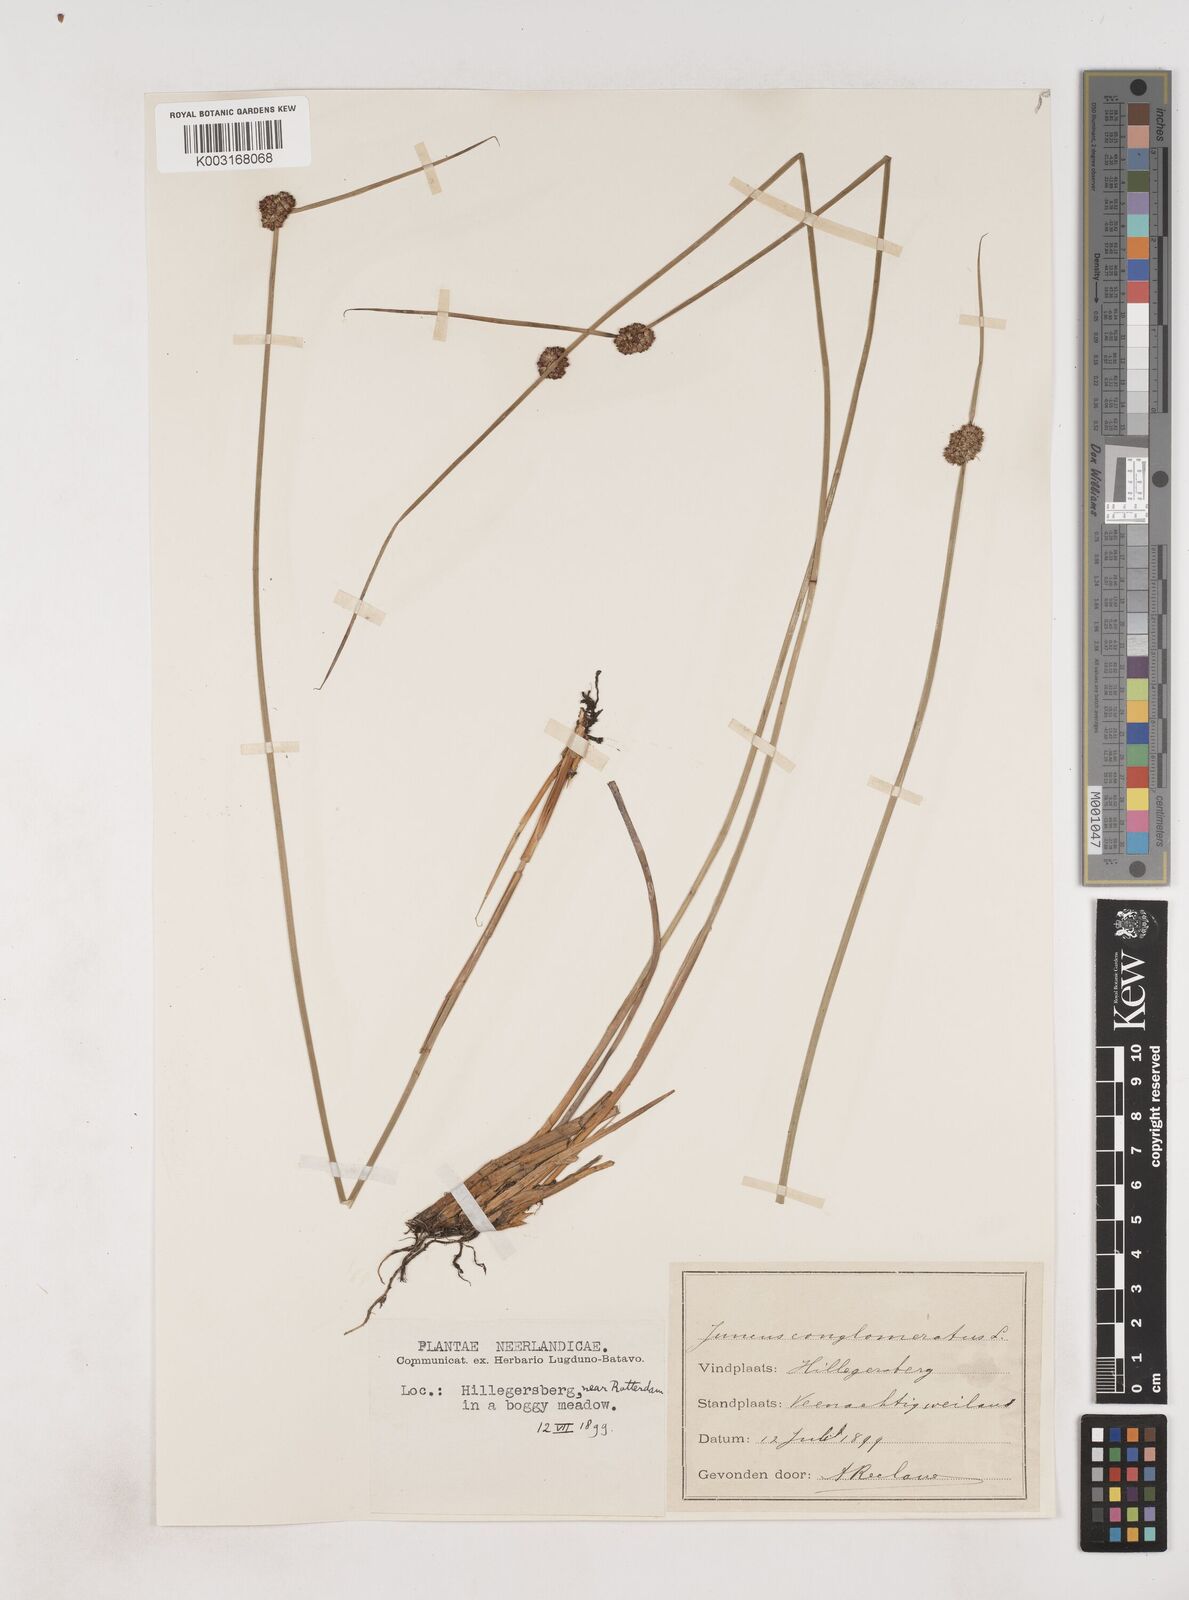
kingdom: Plantae
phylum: Tracheophyta
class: Liliopsida
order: Poales
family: Juncaceae
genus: Juncus
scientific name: Juncus conglomeratus
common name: Compact rush
